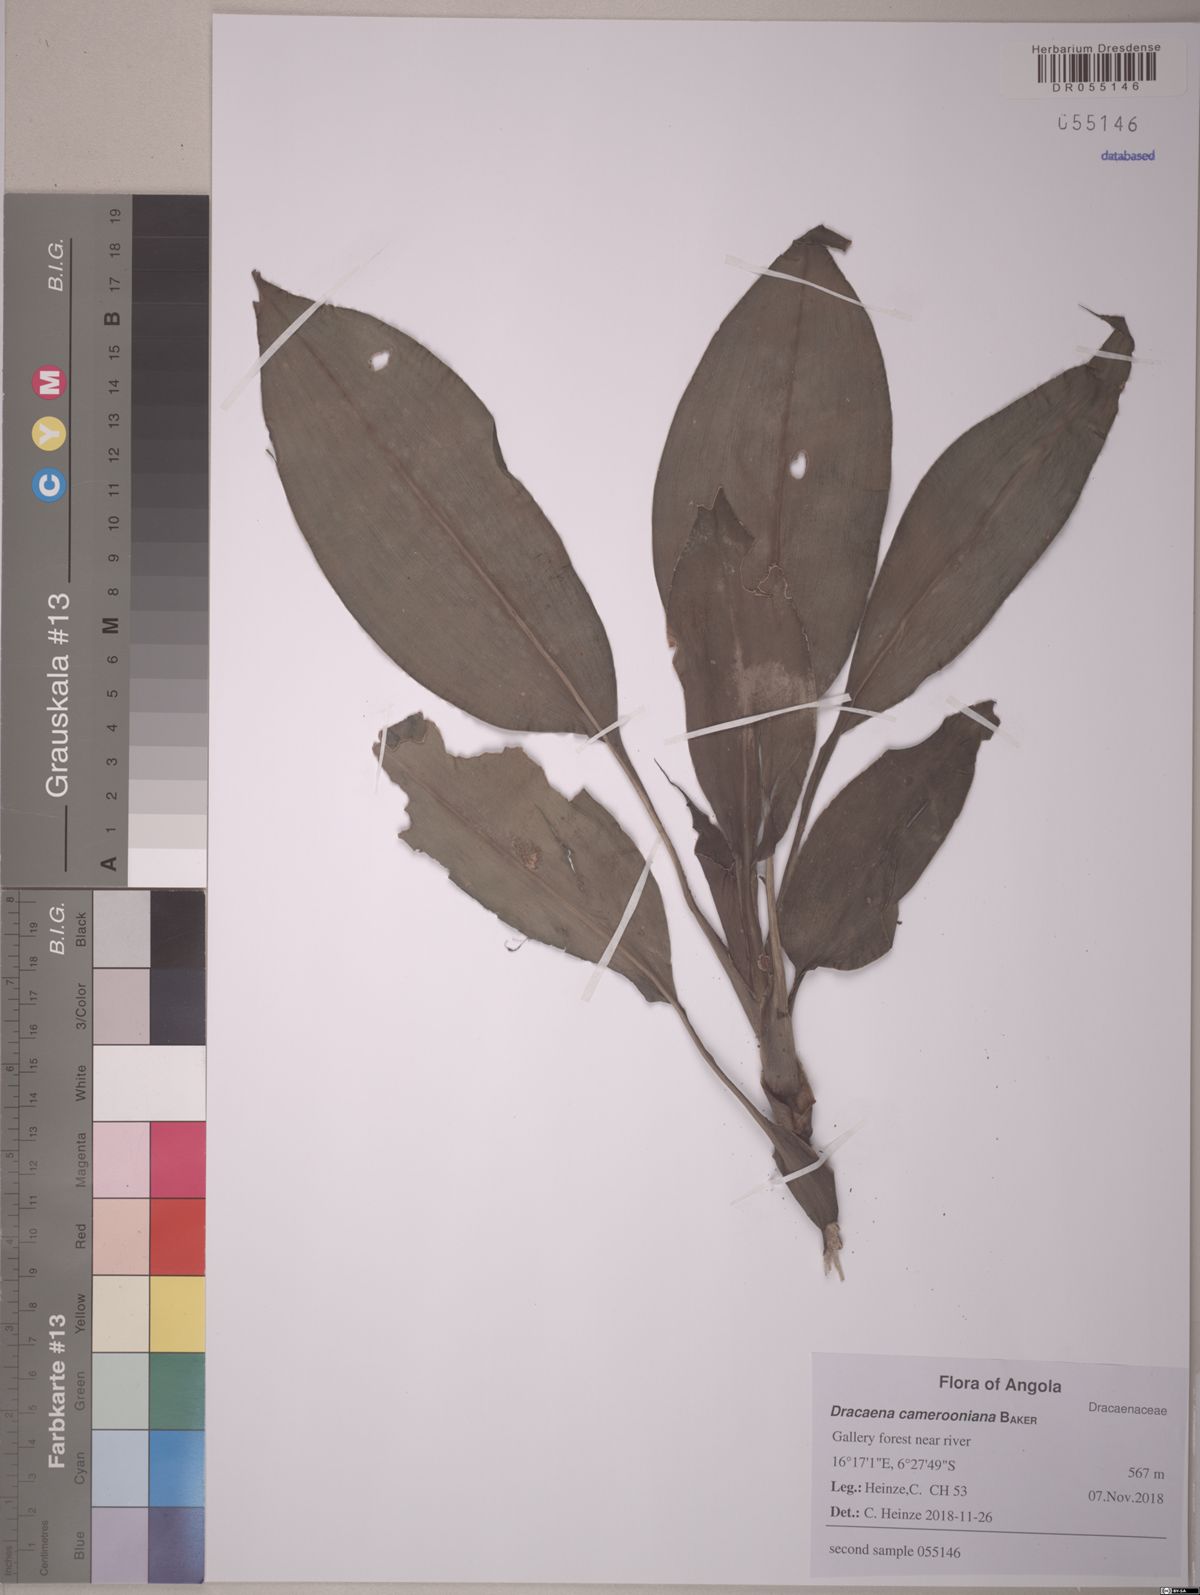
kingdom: Plantae
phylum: Tracheophyta
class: Liliopsida
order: Asparagales
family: Asparagaceae
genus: Dracaena
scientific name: Dracaena camerooniana
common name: Dragon tree
